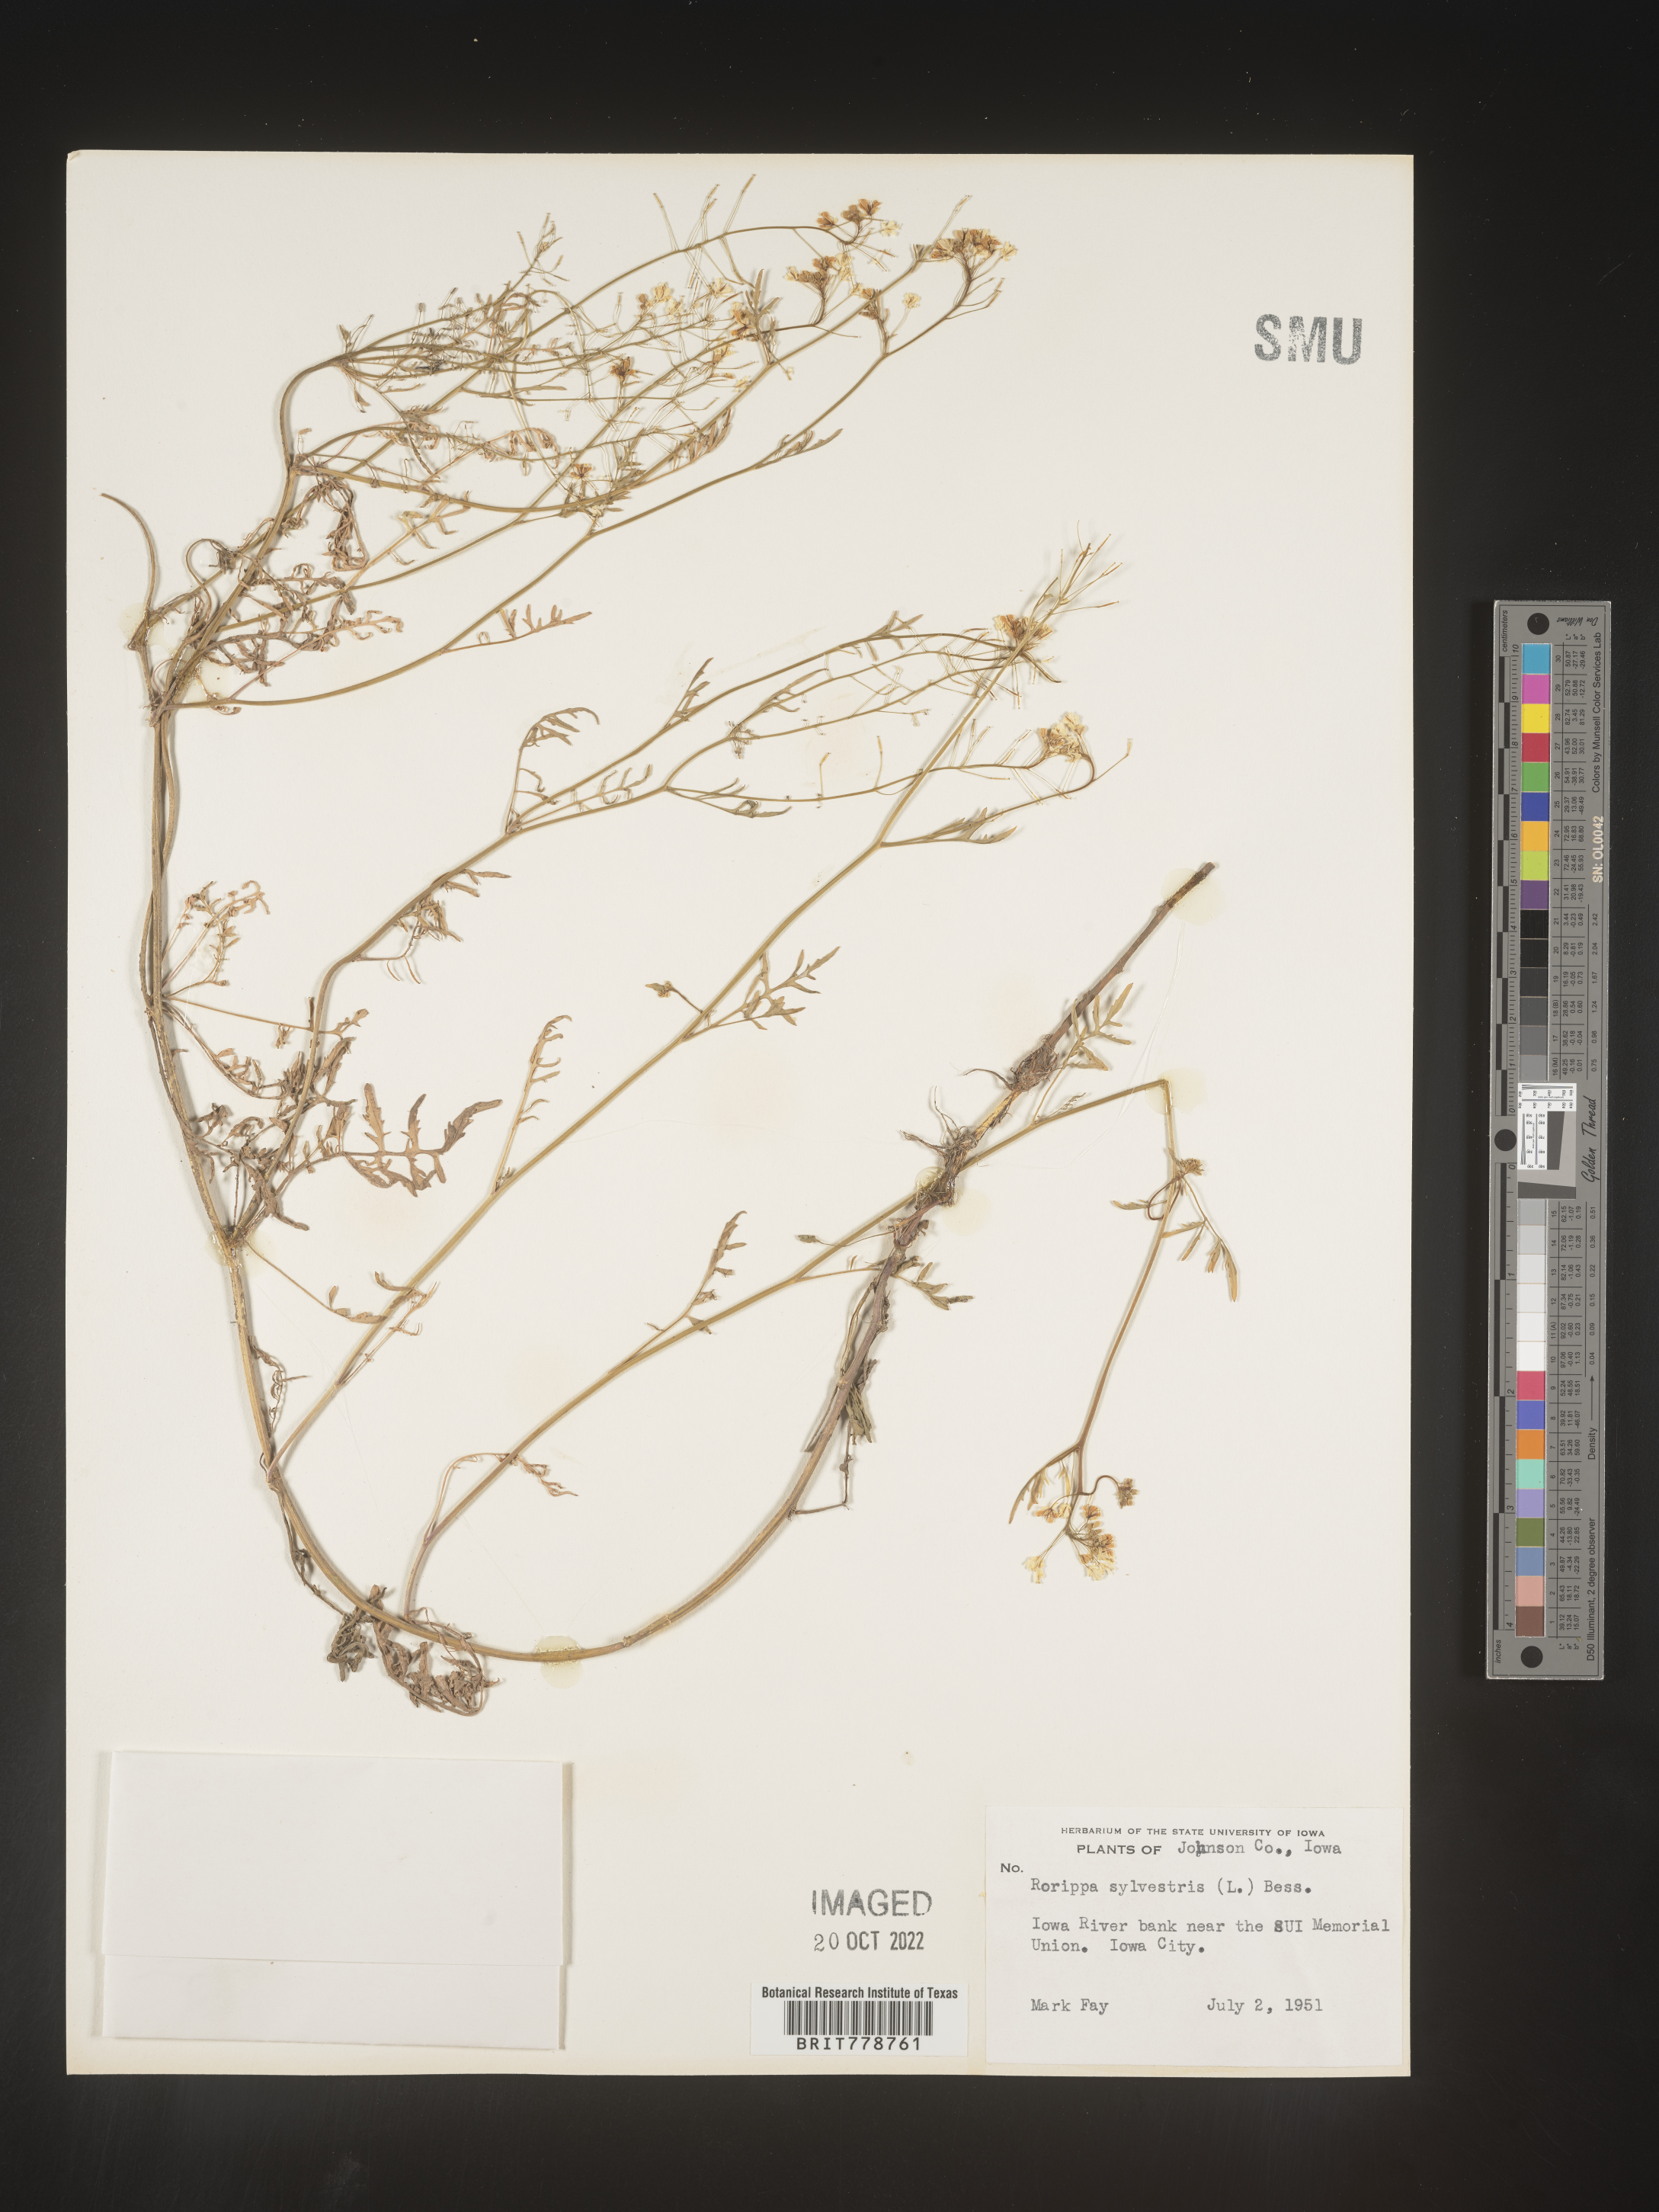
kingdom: Plantae
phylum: Tracheophyta
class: Magnoliopsida
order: Brassicales
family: Brassicaceae
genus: Rorippa
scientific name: Rorippa sylvestris
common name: Creeping yellowcress
